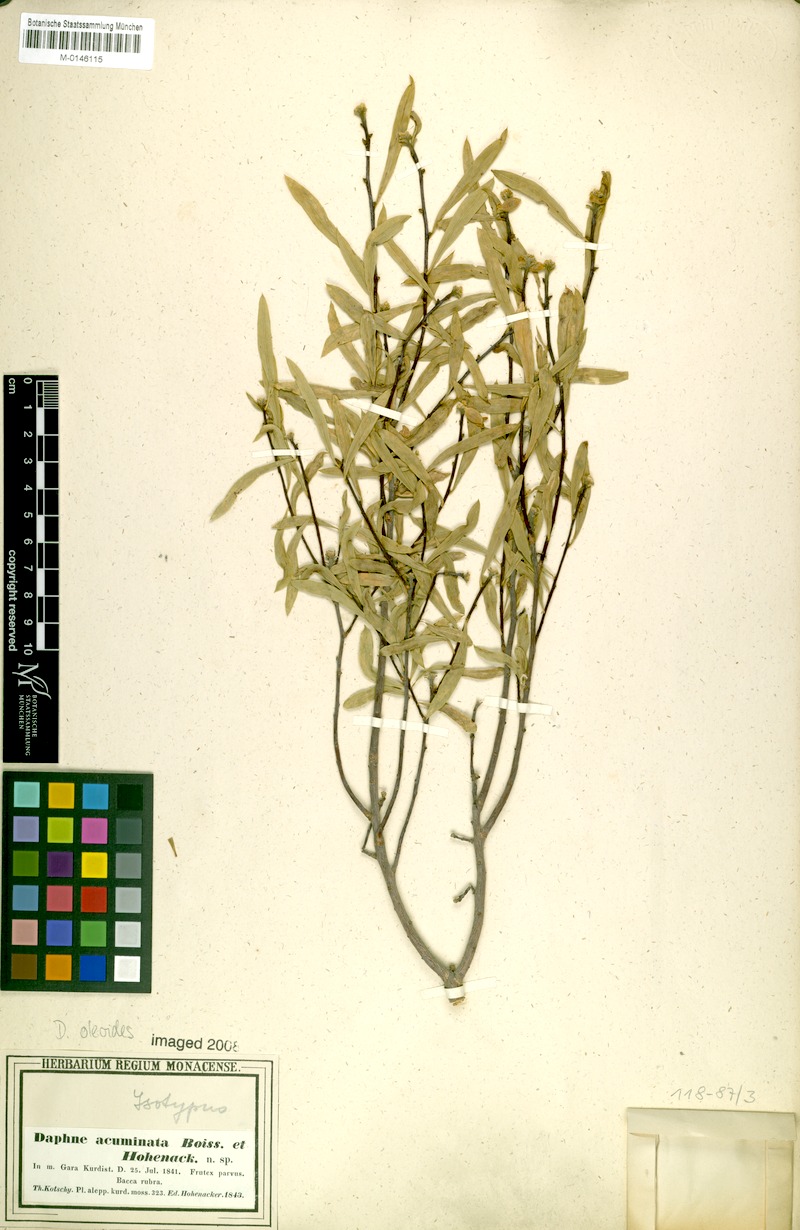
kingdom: Plantae
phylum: Tracheophyta
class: Magnoliopsida
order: Malvales
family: Thymelaeaceae
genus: Daphne
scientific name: Daphne mucronata
